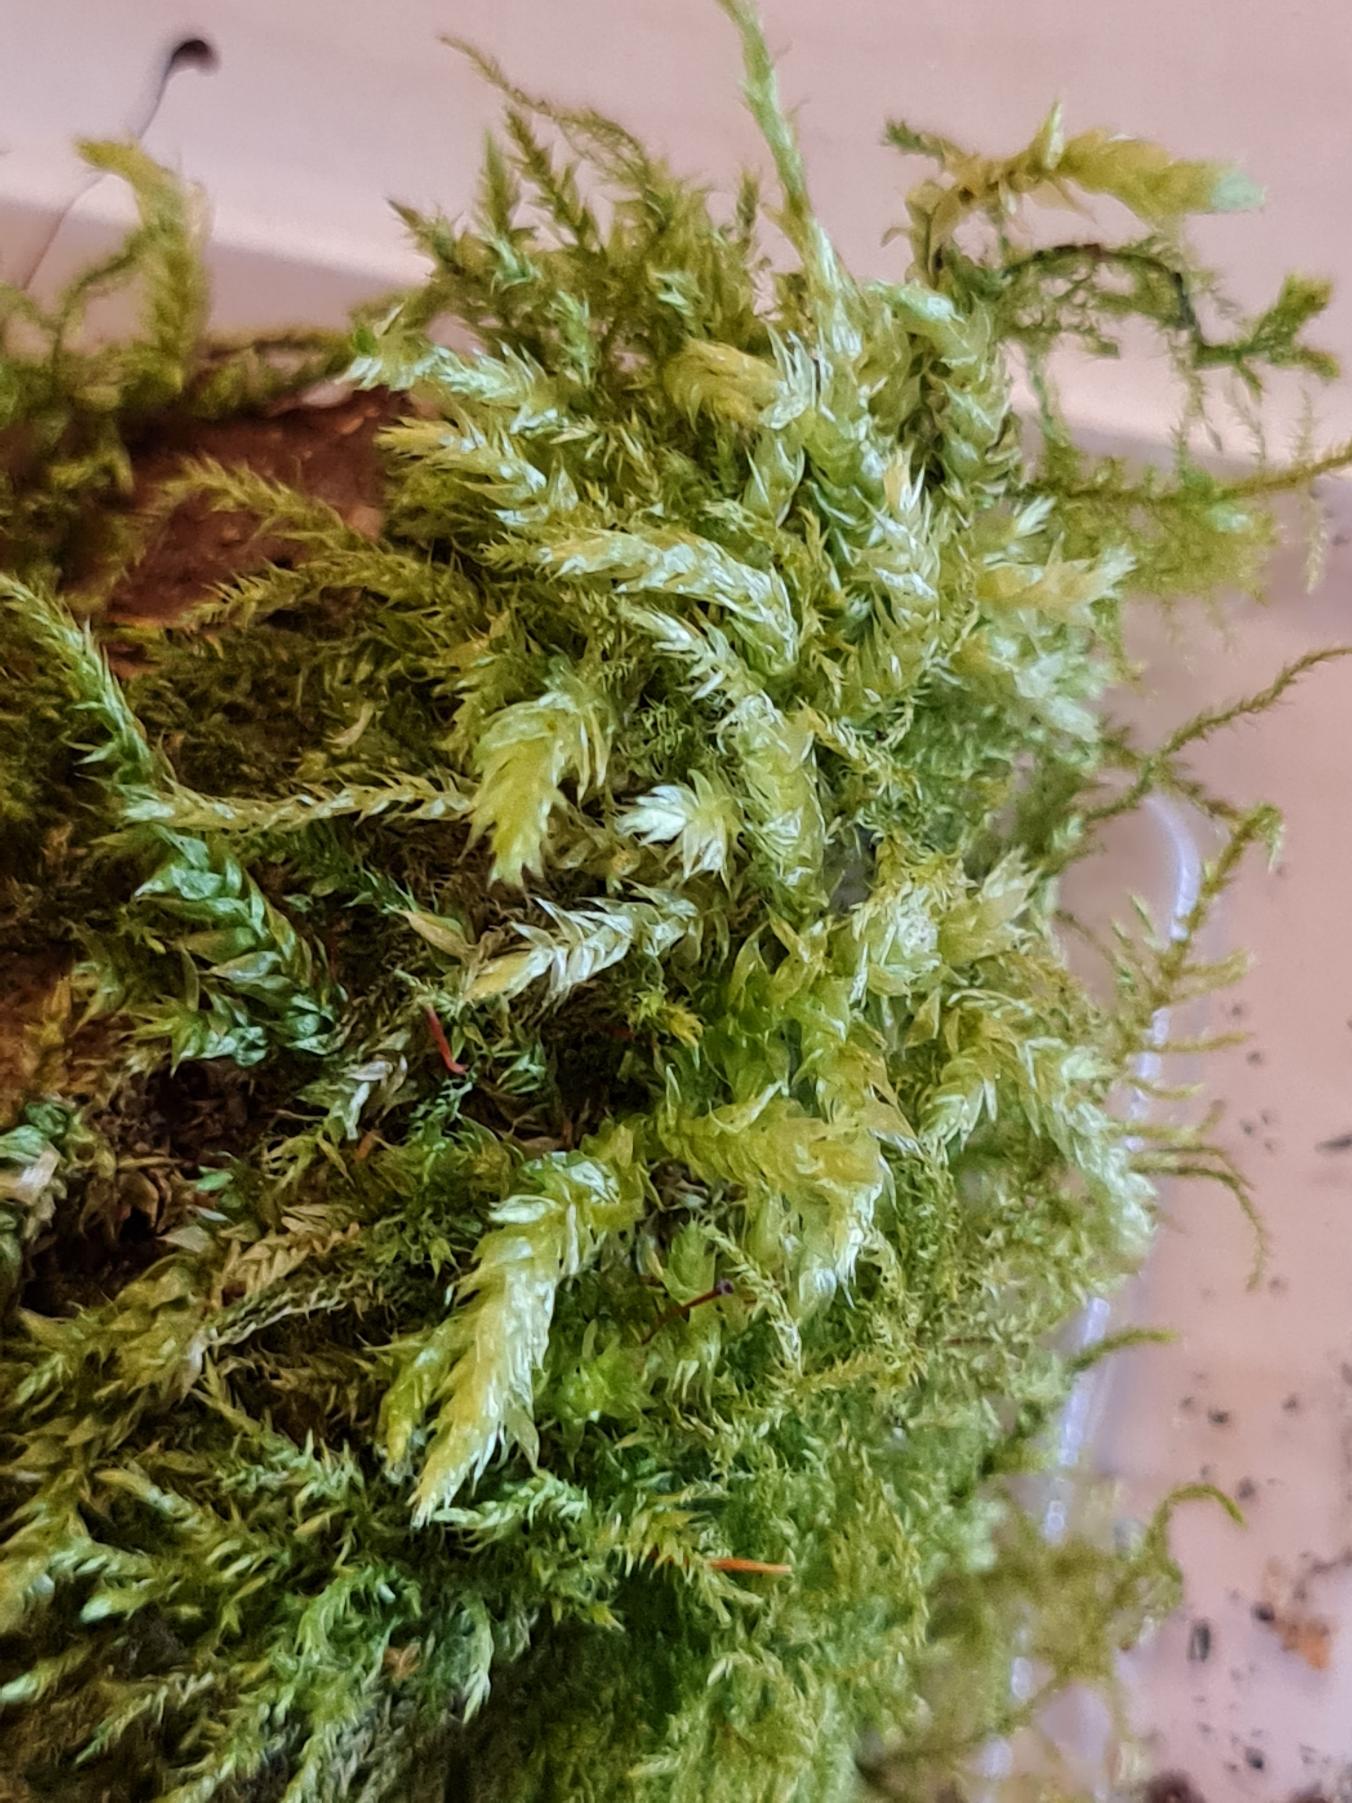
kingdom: Plantae
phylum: Bryophyta
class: Bryopsida
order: Hypnales
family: Brachytheciaceae
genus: Brachythecium
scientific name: Brachythecium rutabulum
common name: Almindelig kortkapsel
